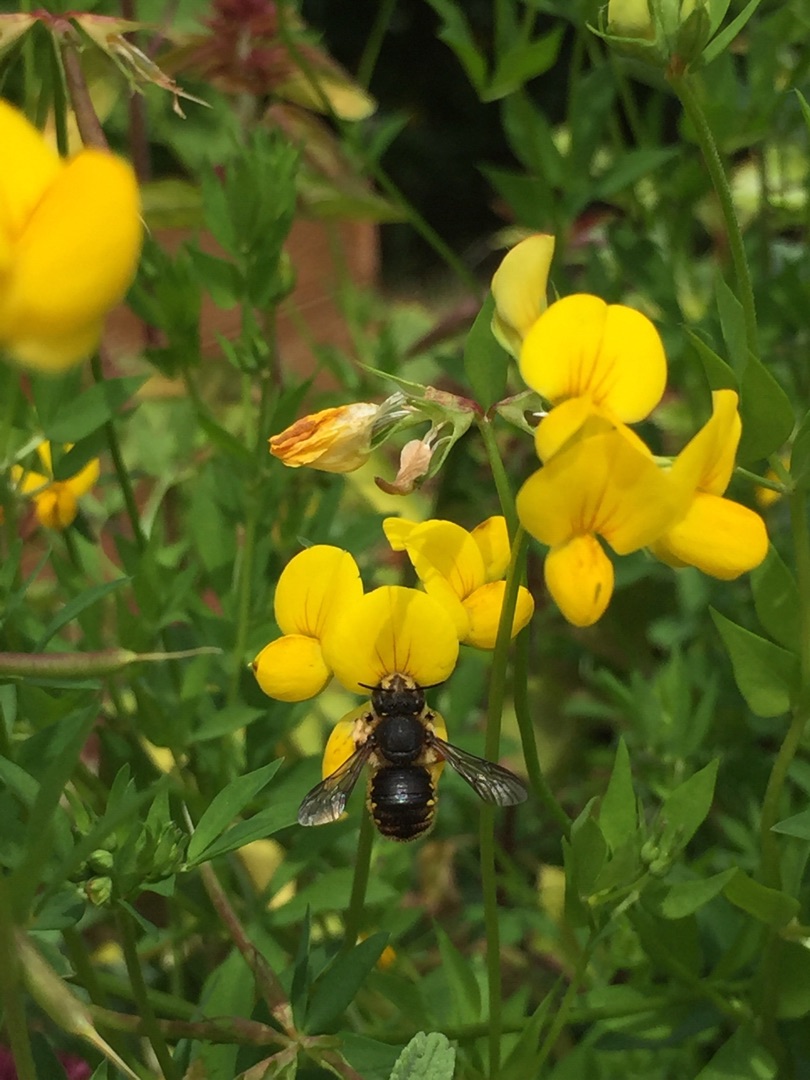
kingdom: Plantae
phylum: Tracheophyta
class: Magnoliopsida
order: Fabales
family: Fabaceae
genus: Lotus
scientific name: Lotus corniculatus
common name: Almindelig kællingetand
